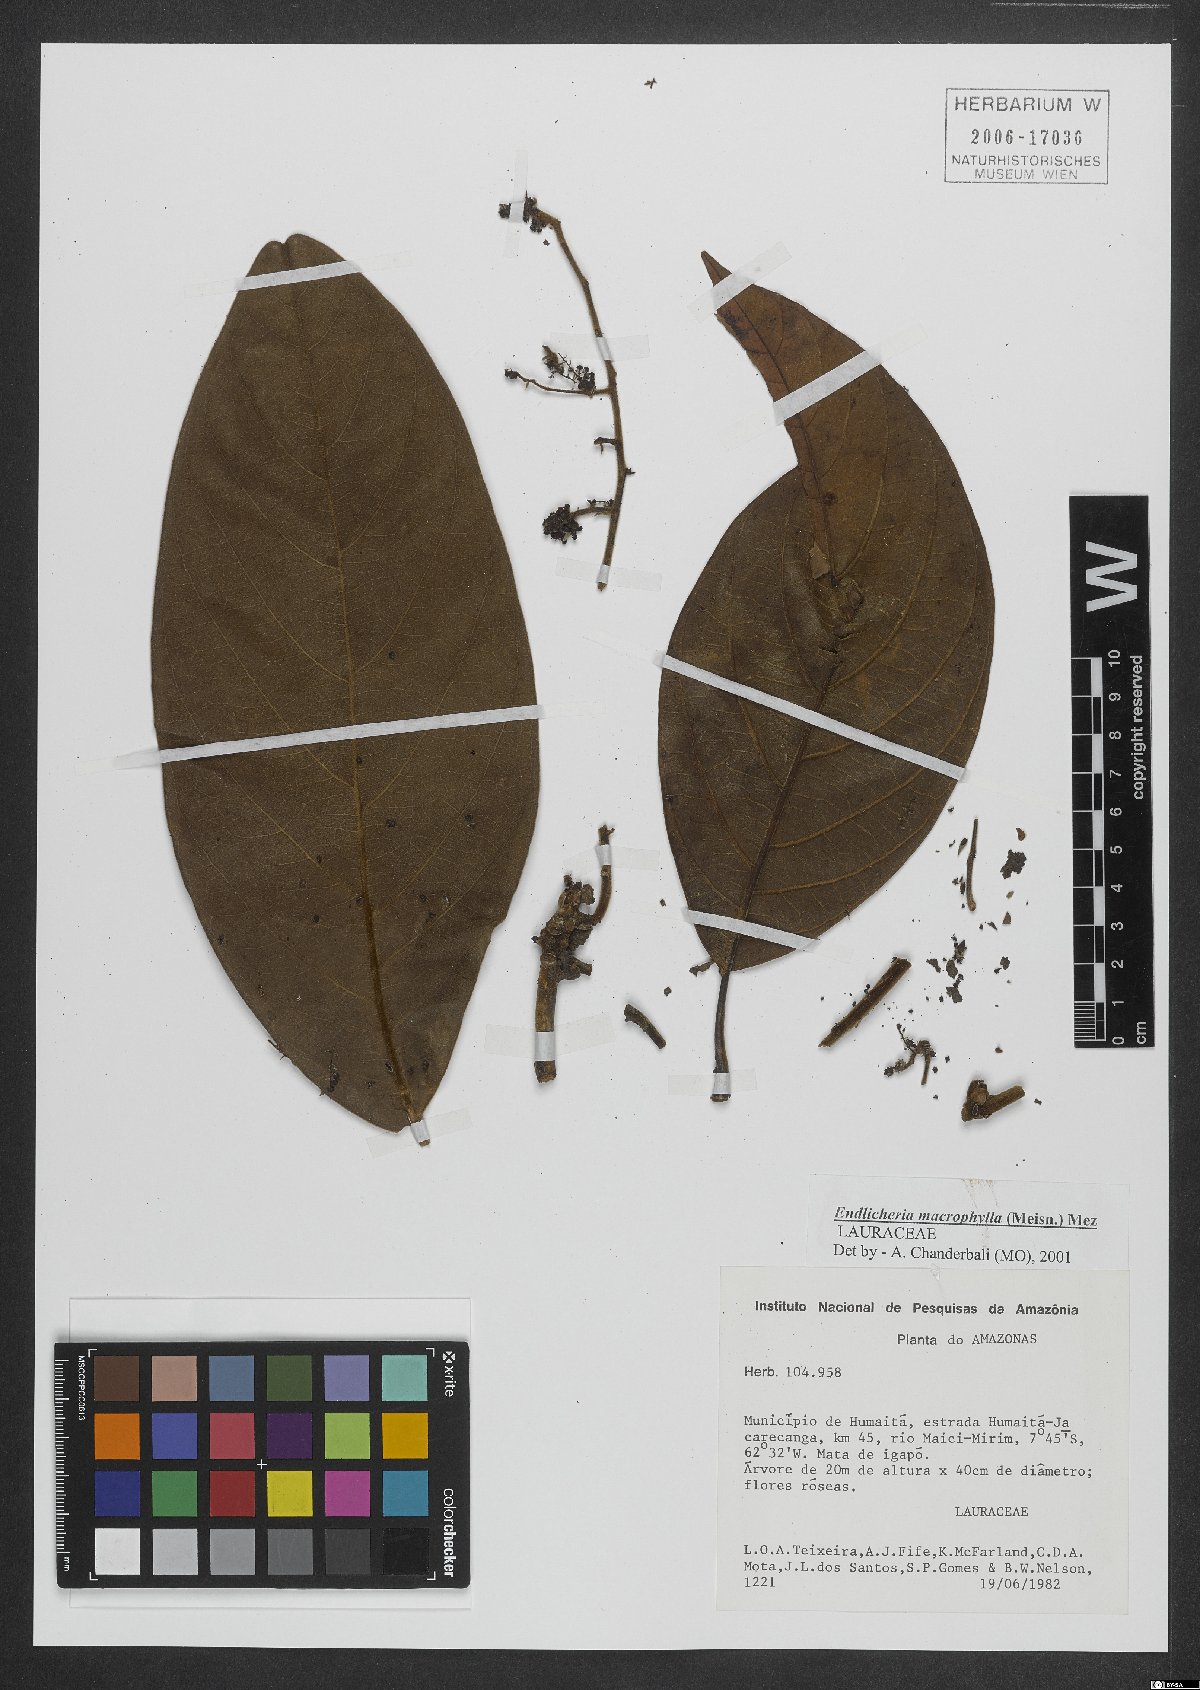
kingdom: Plantae
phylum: Tracheophyta
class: Magnoliopsida
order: Laurales
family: Lauraceae
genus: Endlicheria
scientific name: Endlicheria macrophylla
